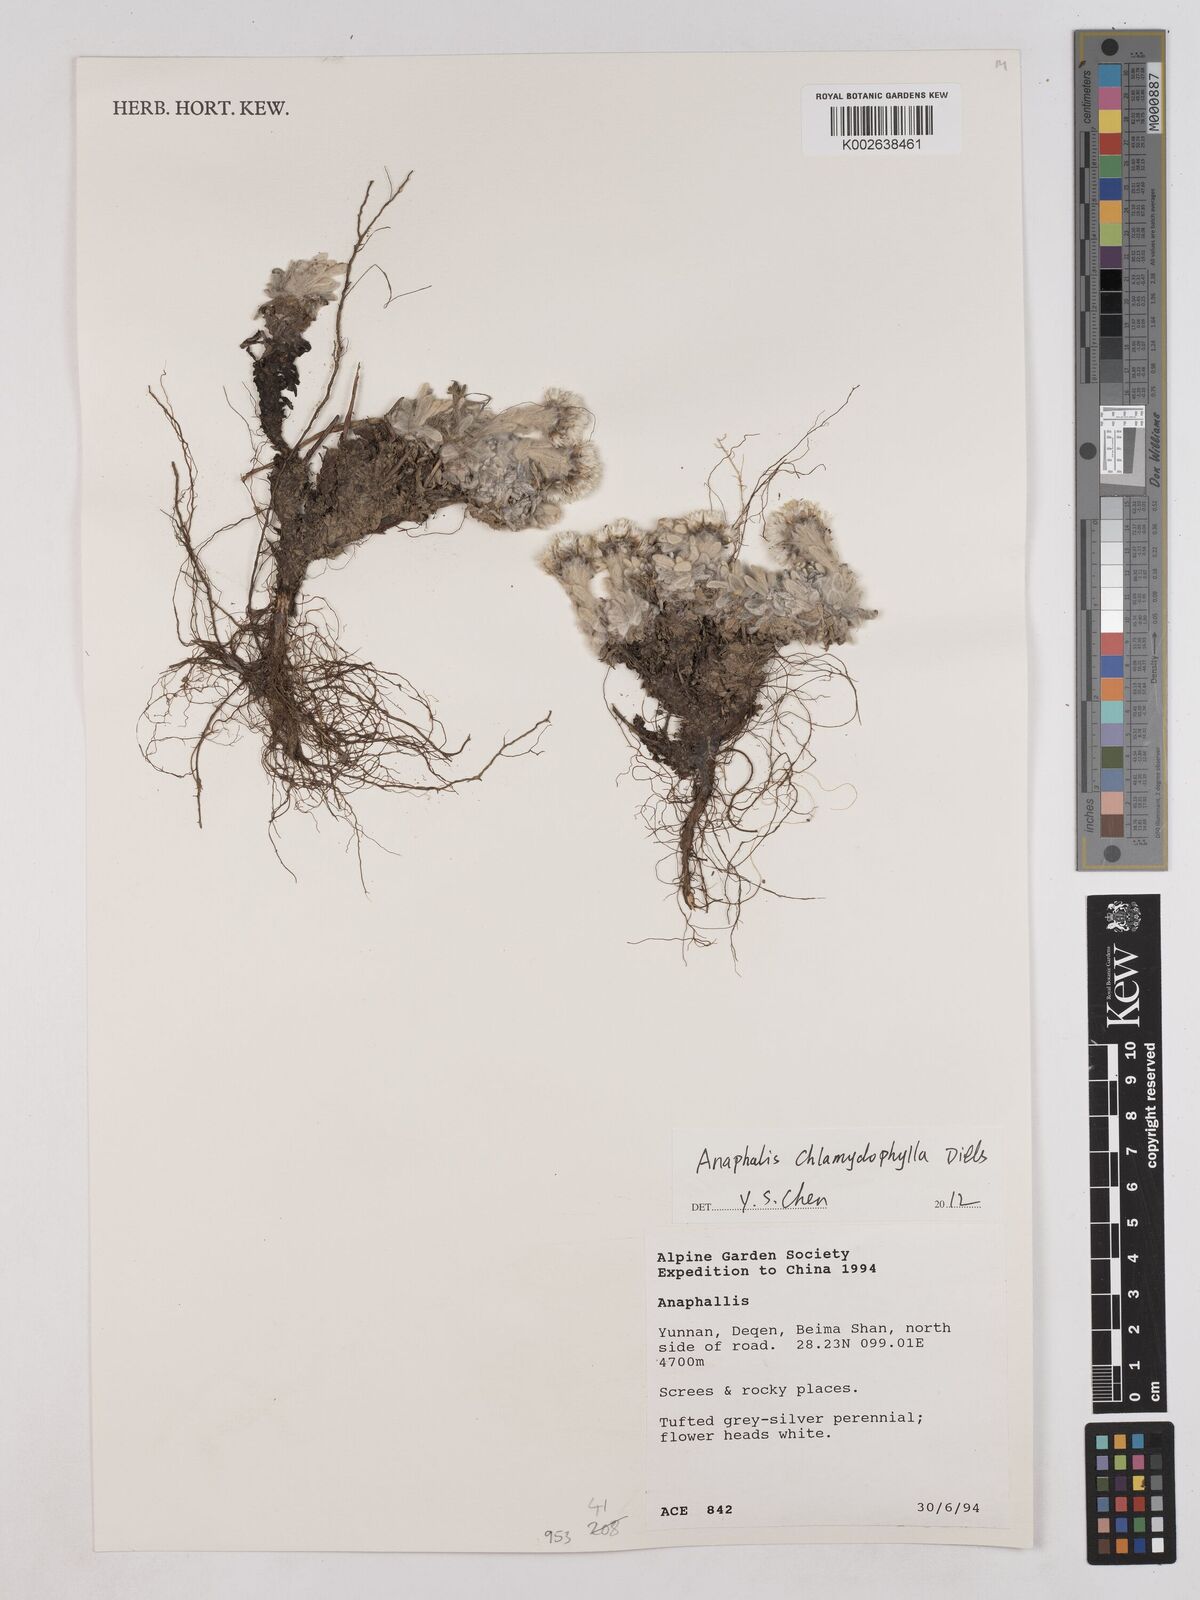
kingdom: Plantae
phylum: Tracheophyta
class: Magnoliopsida
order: Asterales
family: Asteraceae
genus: Anaphalis
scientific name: Anaphalis chlamydophylla
